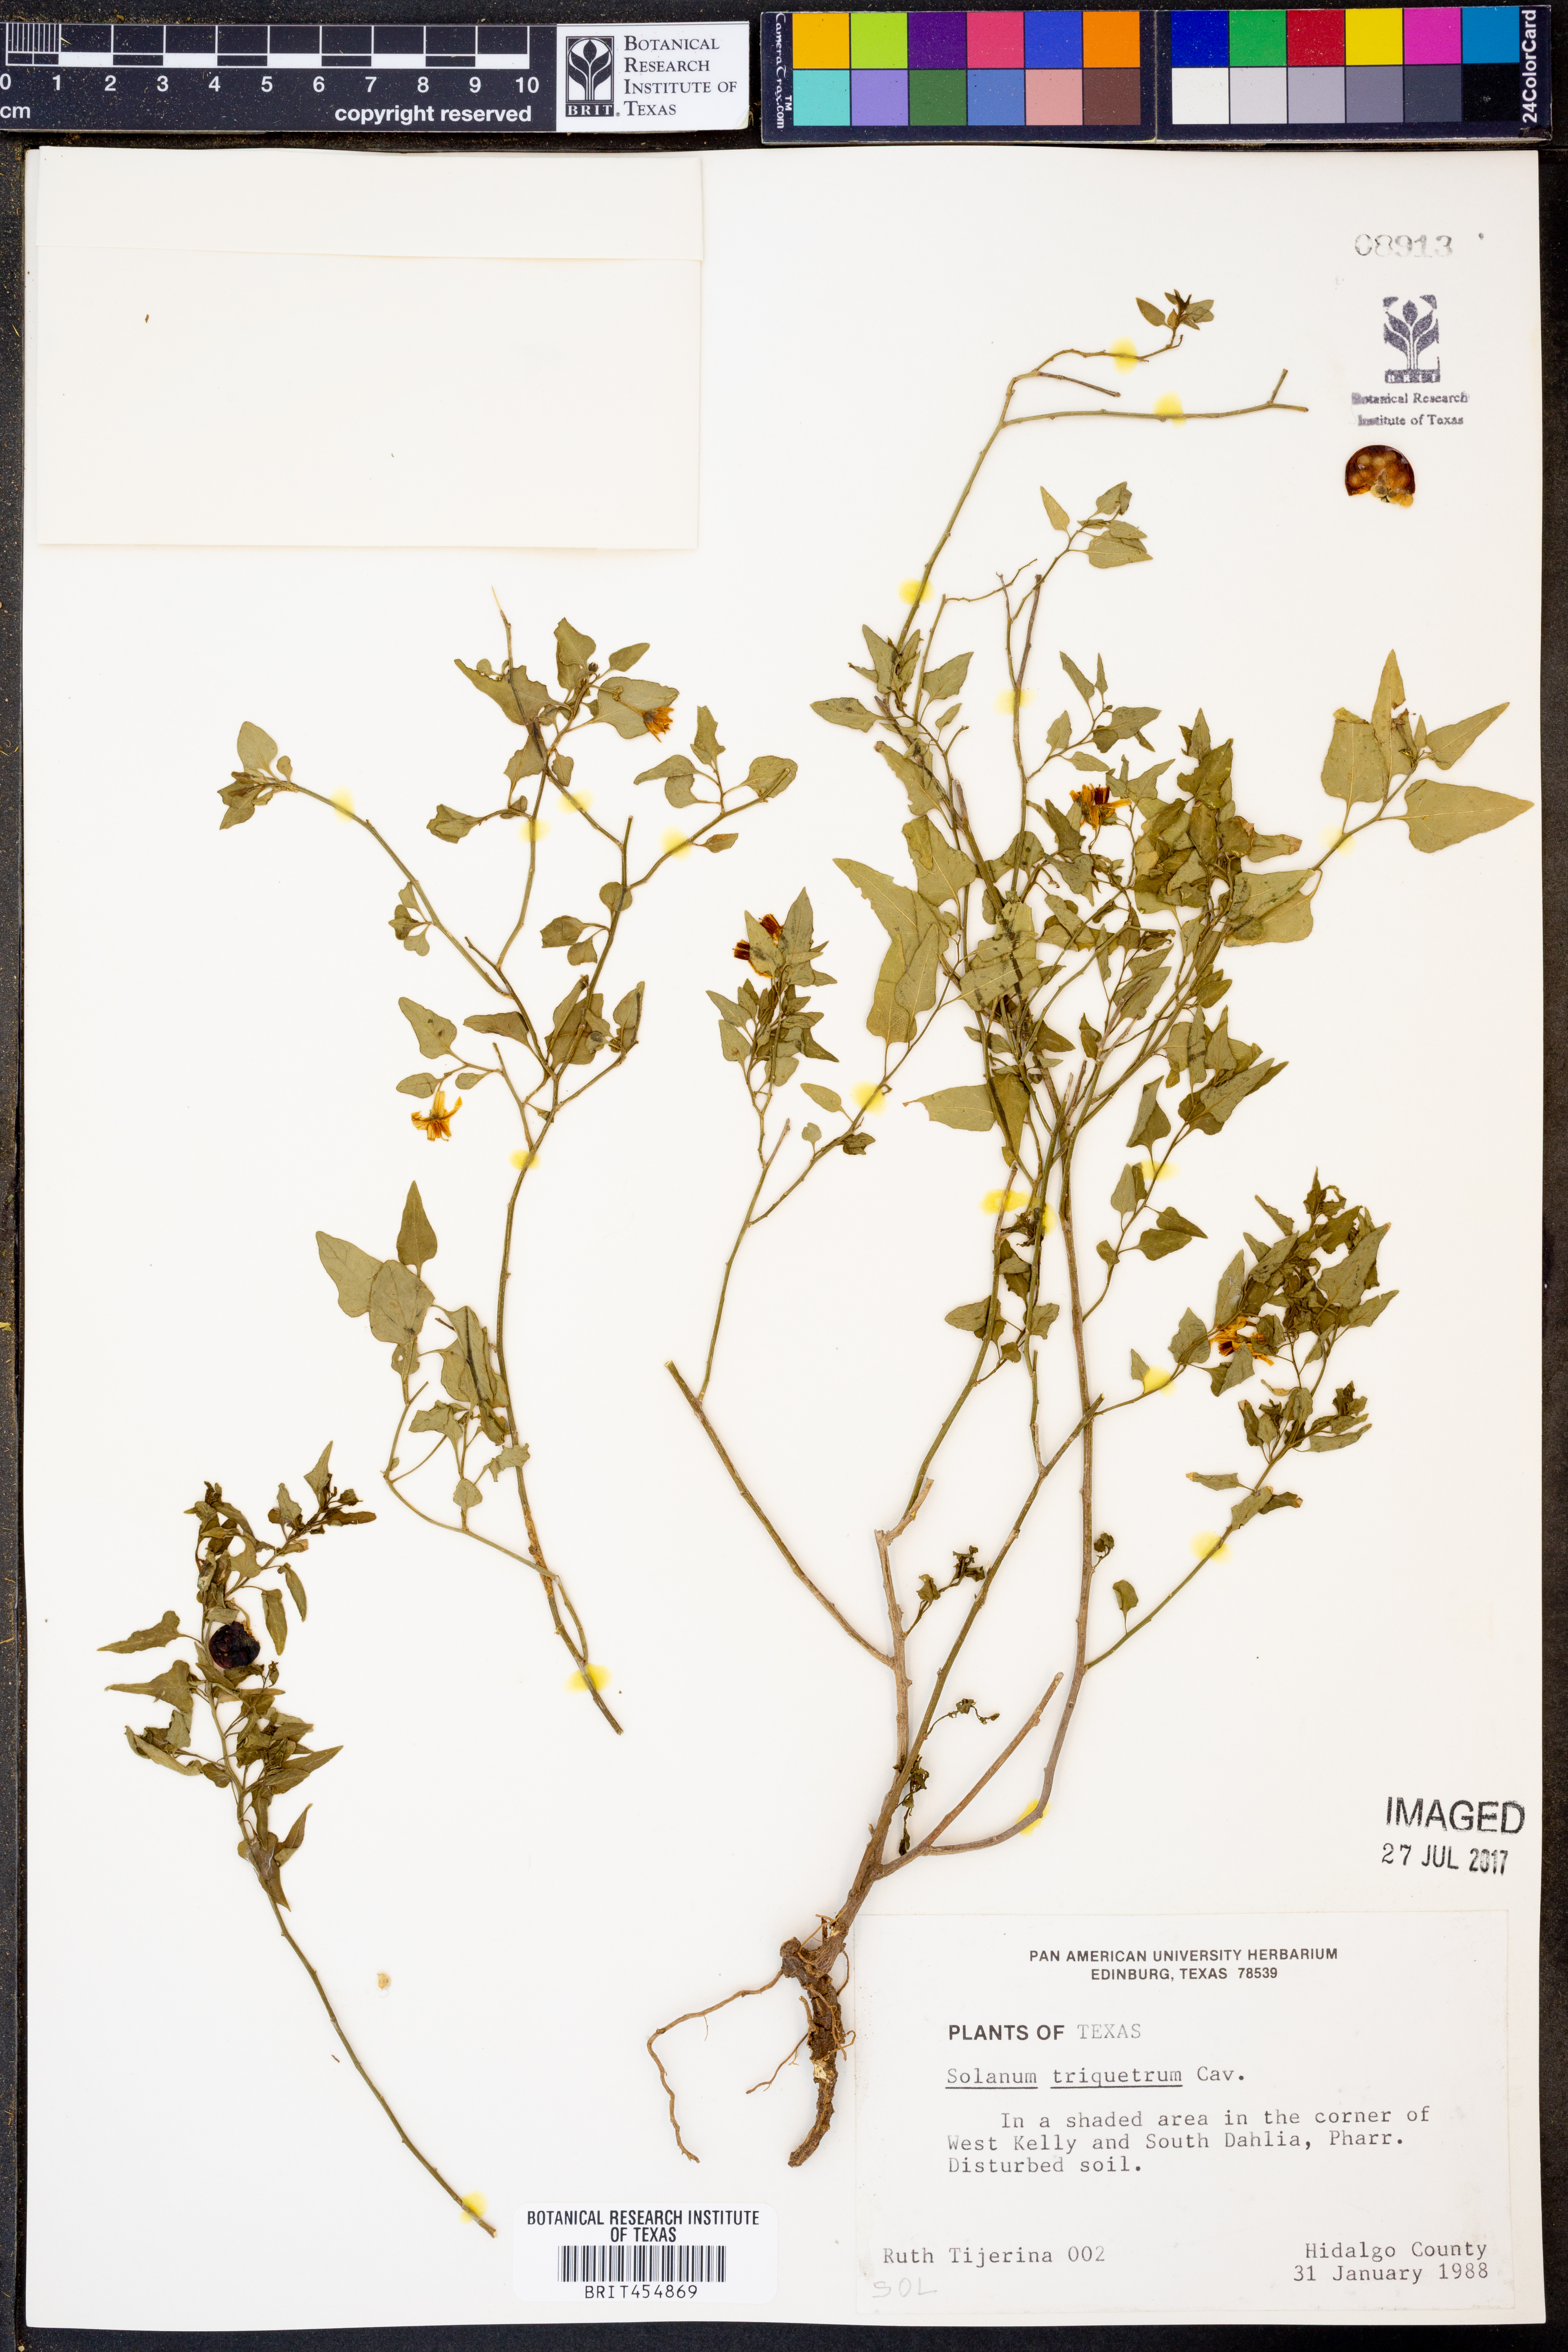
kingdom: Plantae
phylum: Tracheophyta
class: Magnoliopsida
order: Solanales
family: Solanaceae
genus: Solanum
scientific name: Solanum triquetrum
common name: Texas nightshade
